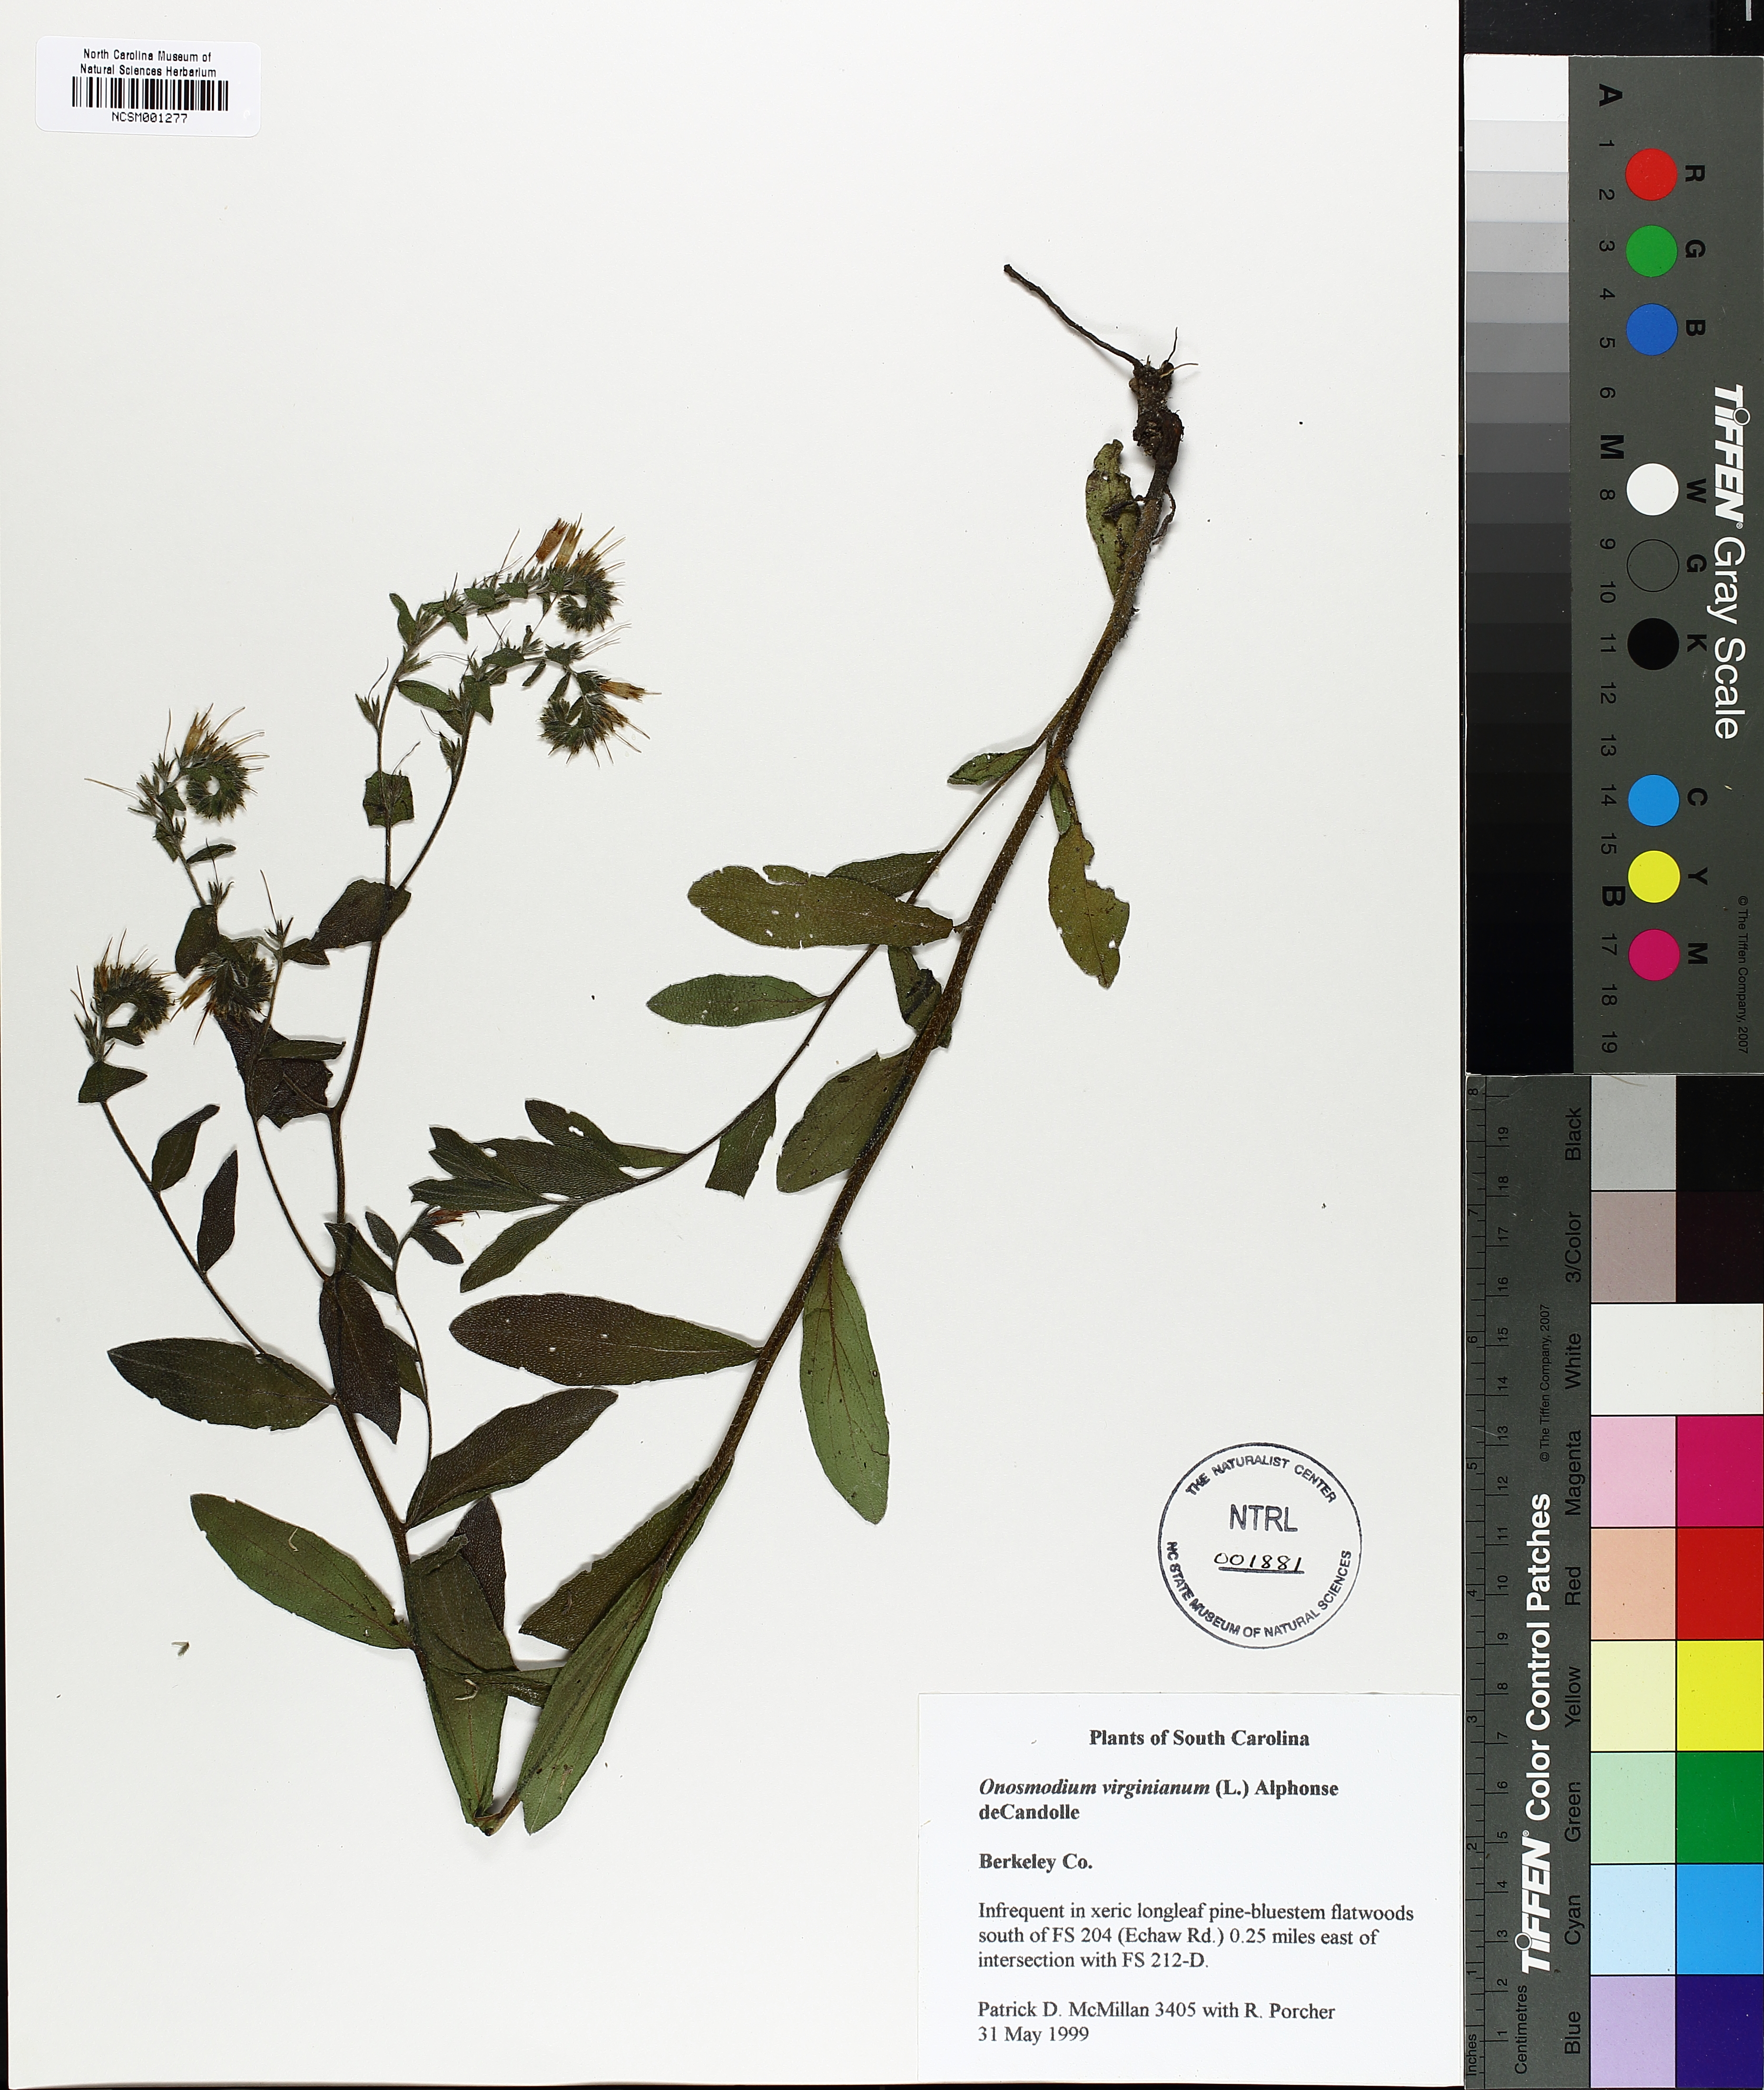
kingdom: Plantae
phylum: Tracheophyta
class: Magnoliopsida
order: Boraginales
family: Boraginaceae
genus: Lithospermum
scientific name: Lithospermum virginianum
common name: Eastern false gromwell
